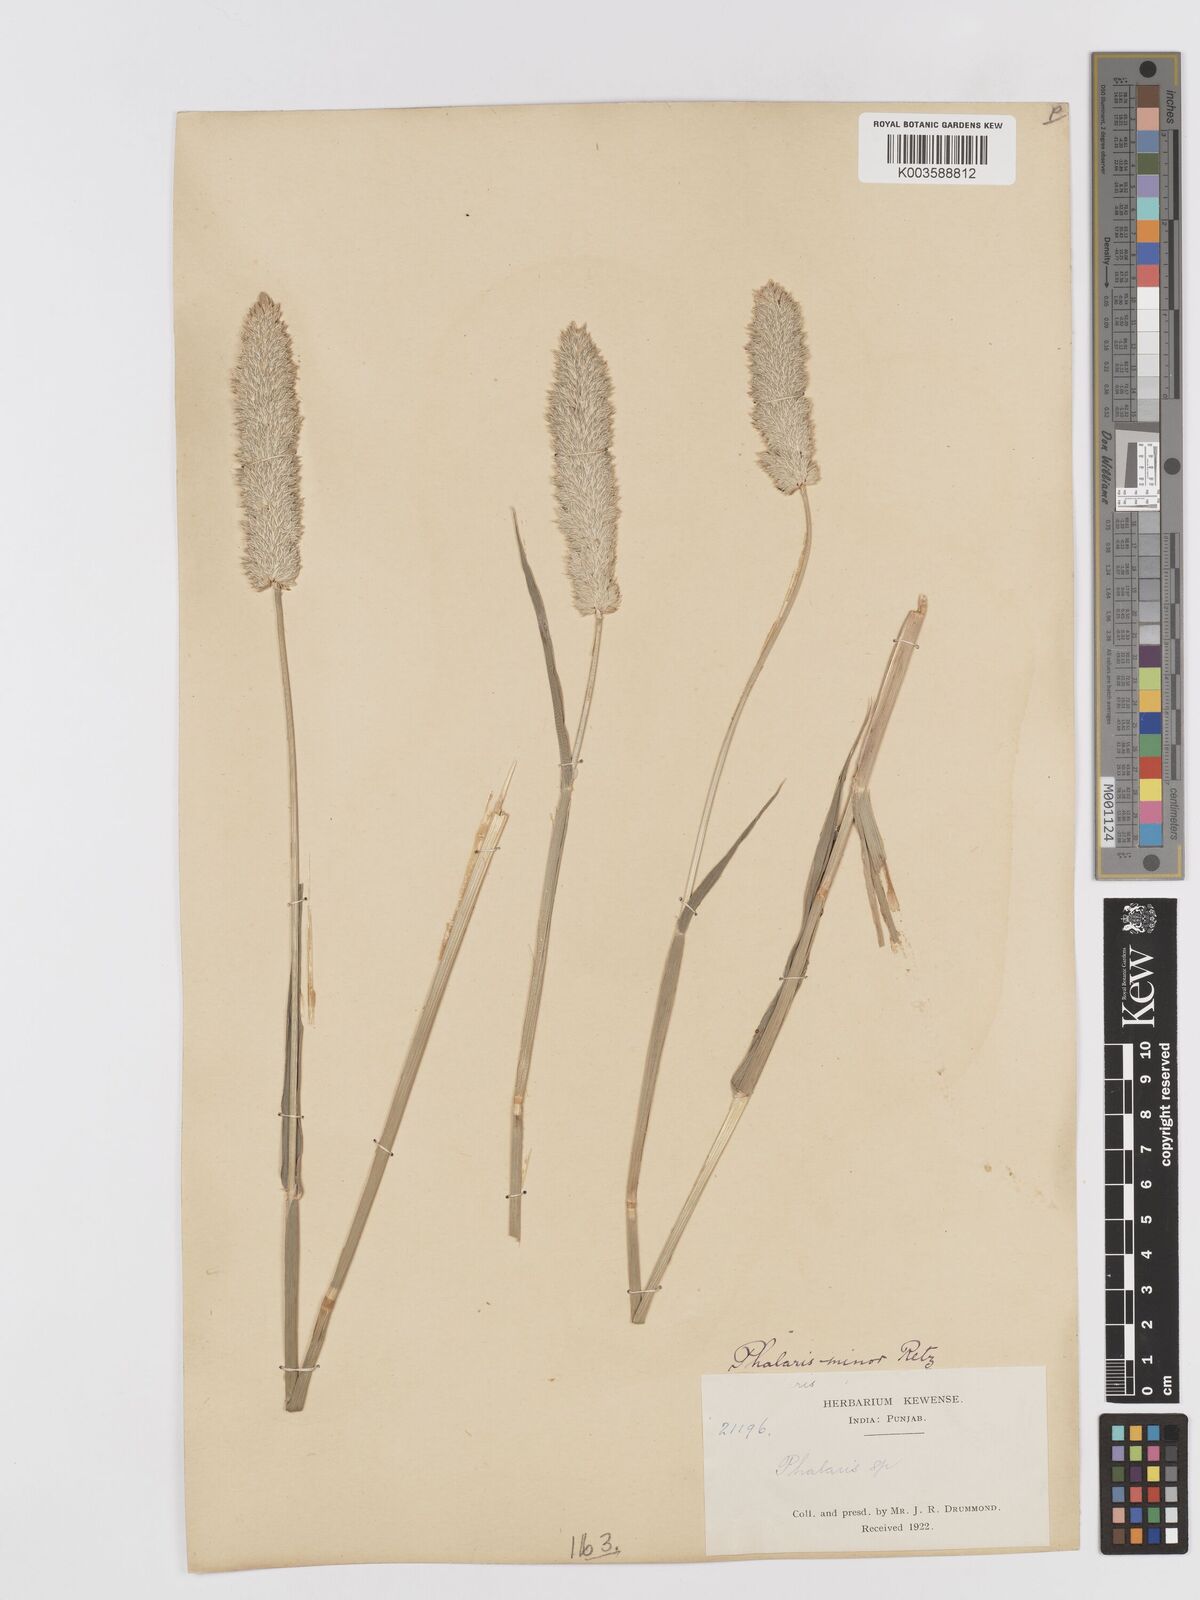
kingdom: Plantae
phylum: Tracheophyta
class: Liliopsida
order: Poales
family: Poaceae
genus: Phalaris
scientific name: Phalaris minor
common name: Littleseed canarygrass
